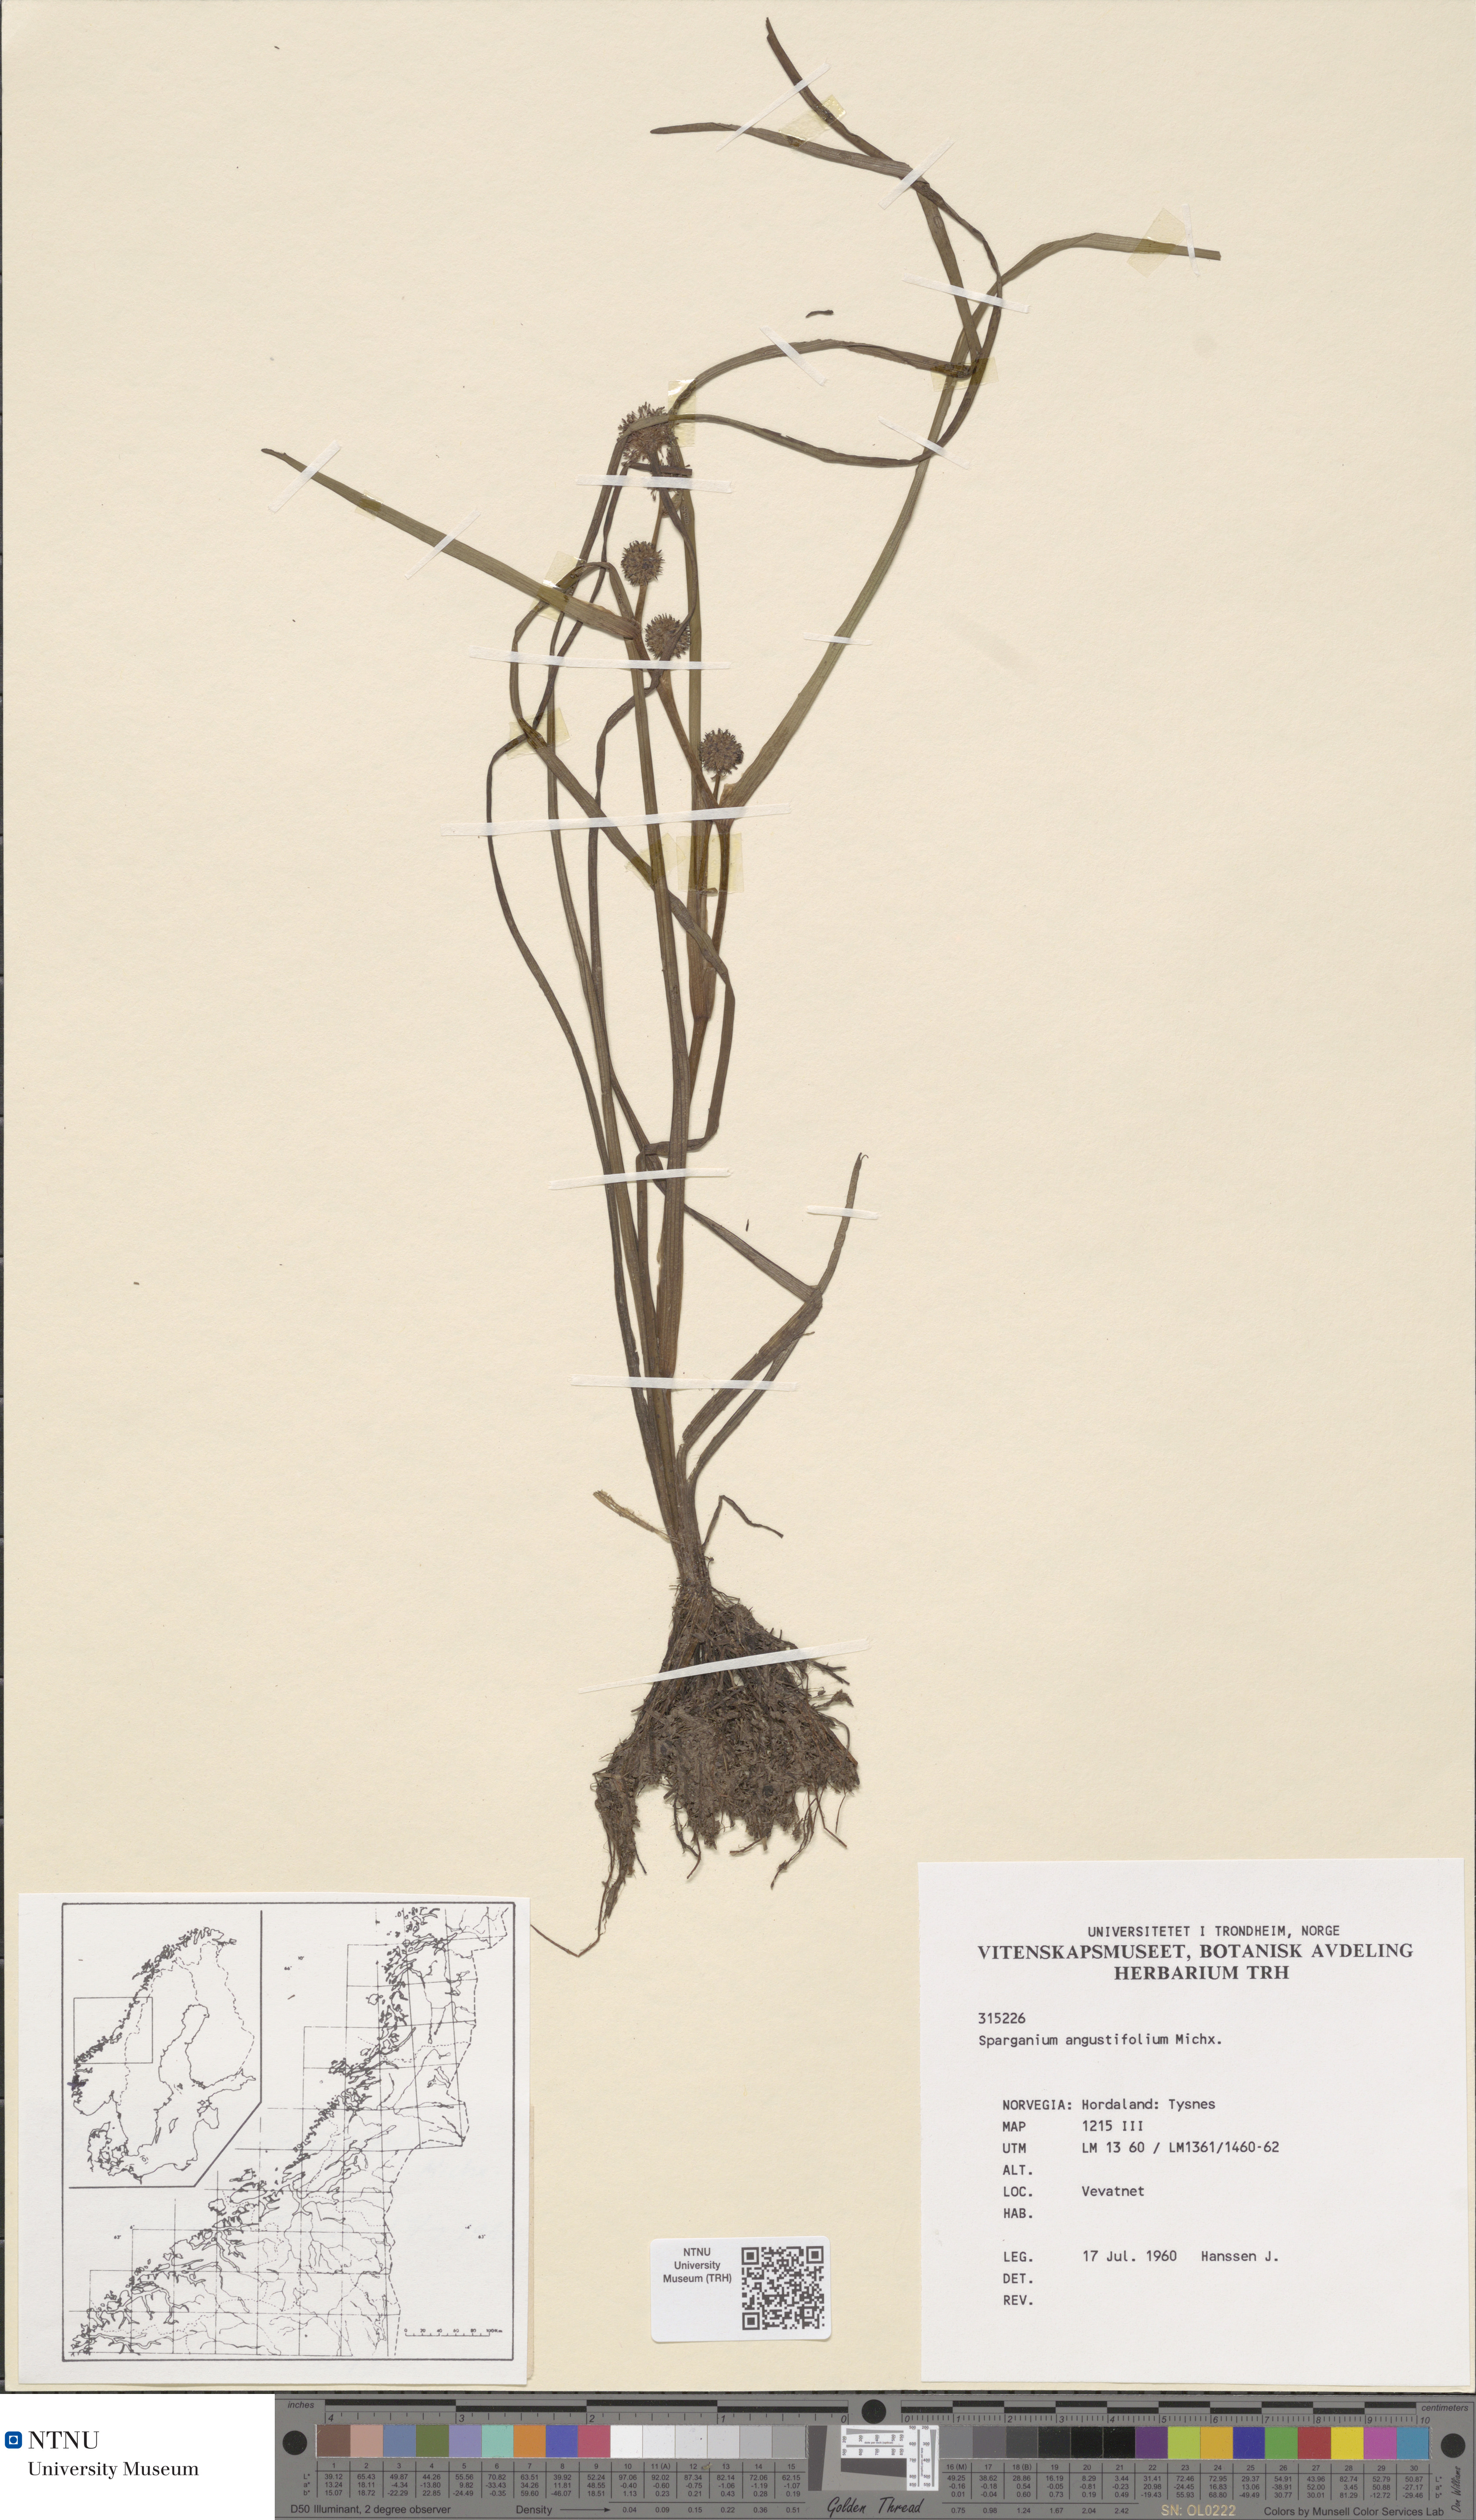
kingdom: Plantae
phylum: Tracheophyta
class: Liliopsida
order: Poales
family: Typhaceae
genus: Sparganium
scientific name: Sparganium angustifolium
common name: Floating bur-reed
